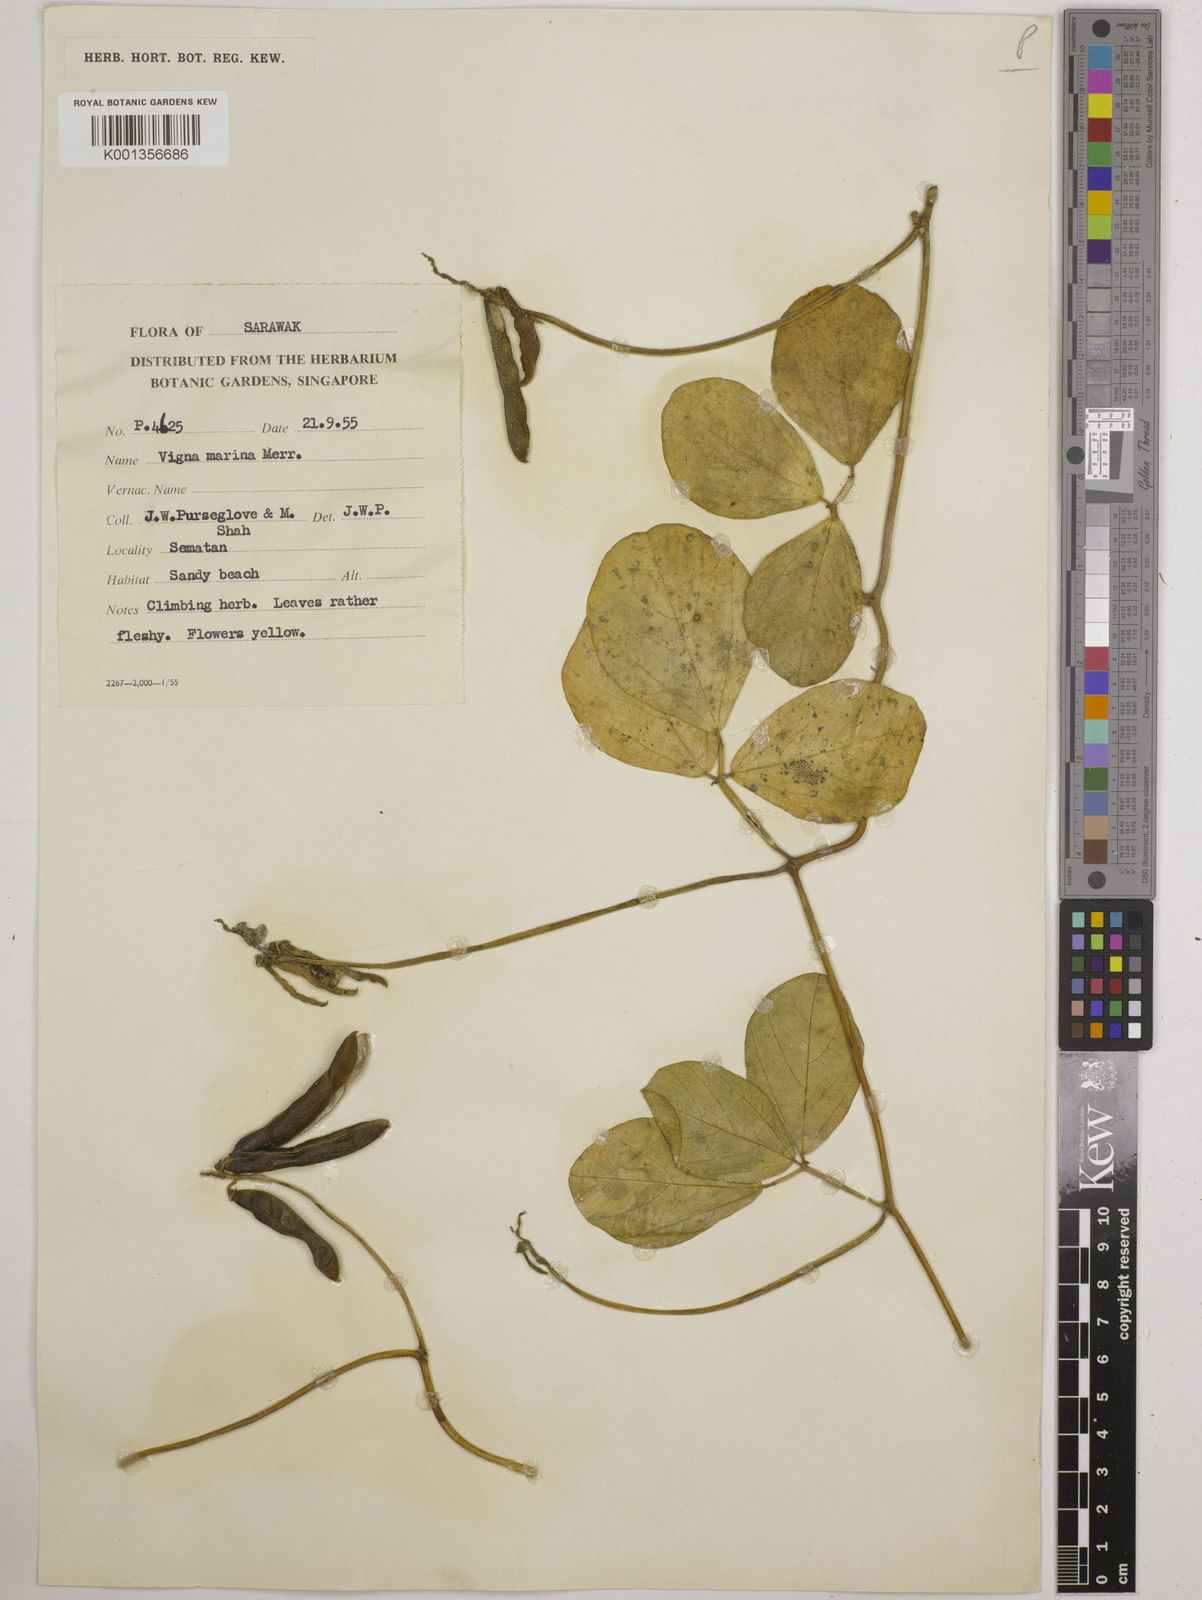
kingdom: Plantae
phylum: Tracheophyta
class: Magnoliopsida
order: Fabales
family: Fabaceae
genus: Vigna
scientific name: Vigna marina
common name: Dune-bean
